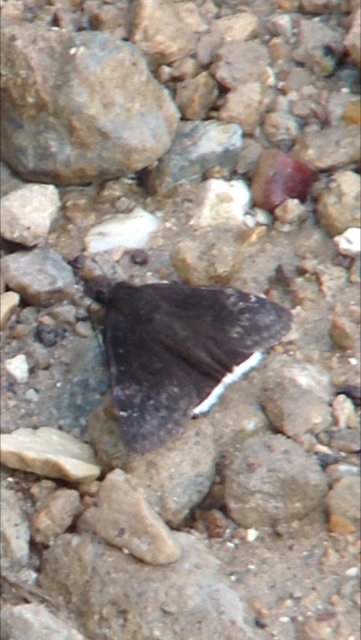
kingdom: Animalia
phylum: Arthropoda
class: Insecta
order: Lepidoptera
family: Hesperiidae
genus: Erynnis
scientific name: Erynnis funeralis
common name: Funereal Duskywing
